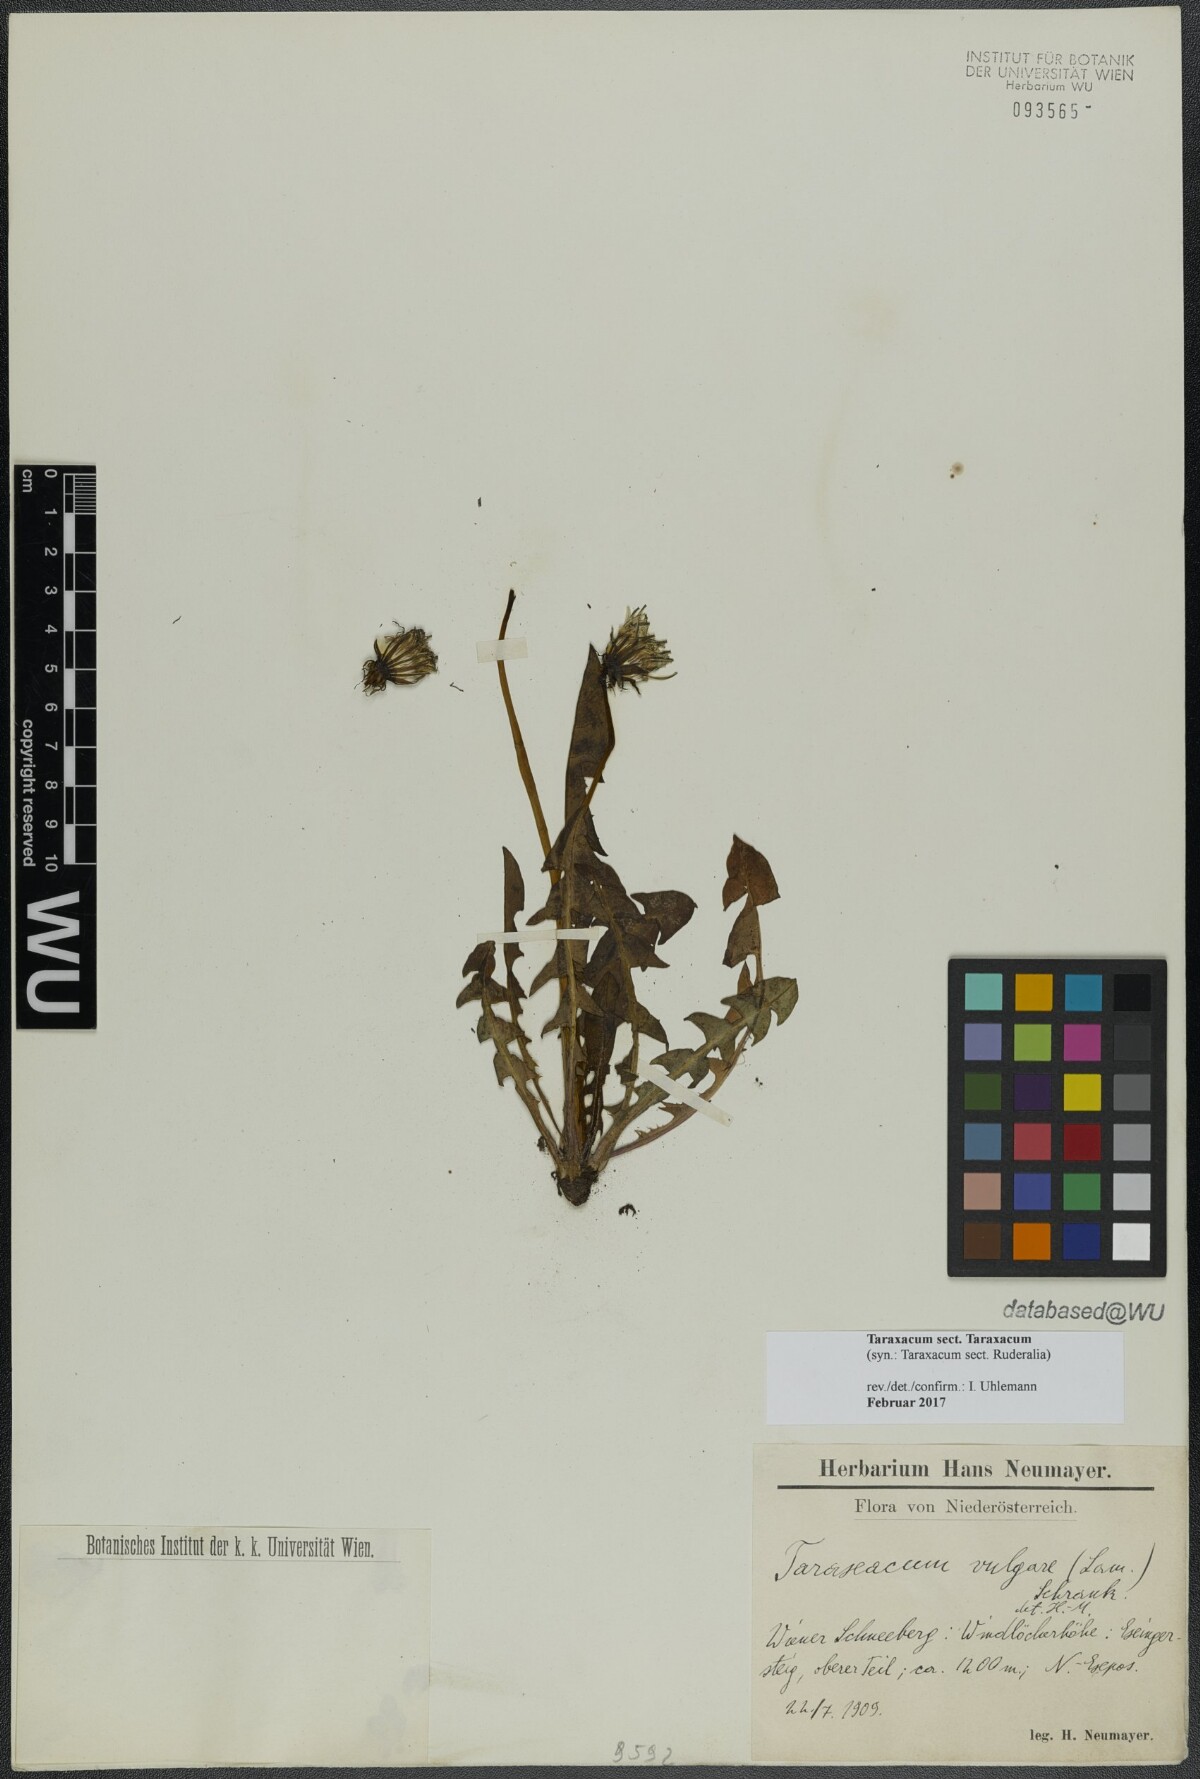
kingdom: Plantae
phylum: Tracheophyta
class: Magnoliopsida
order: Asterales
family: Asteraceae
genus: Taraxacum
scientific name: Taraxacum
